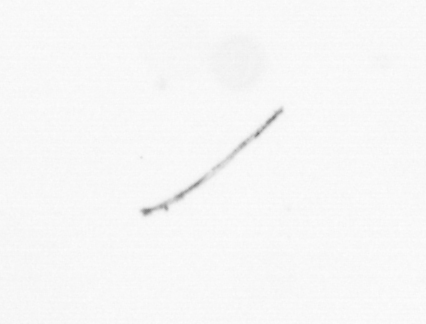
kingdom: Chromista
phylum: Ochrophyta
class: Bacillariophyceae
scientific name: Bacillariophyceae
